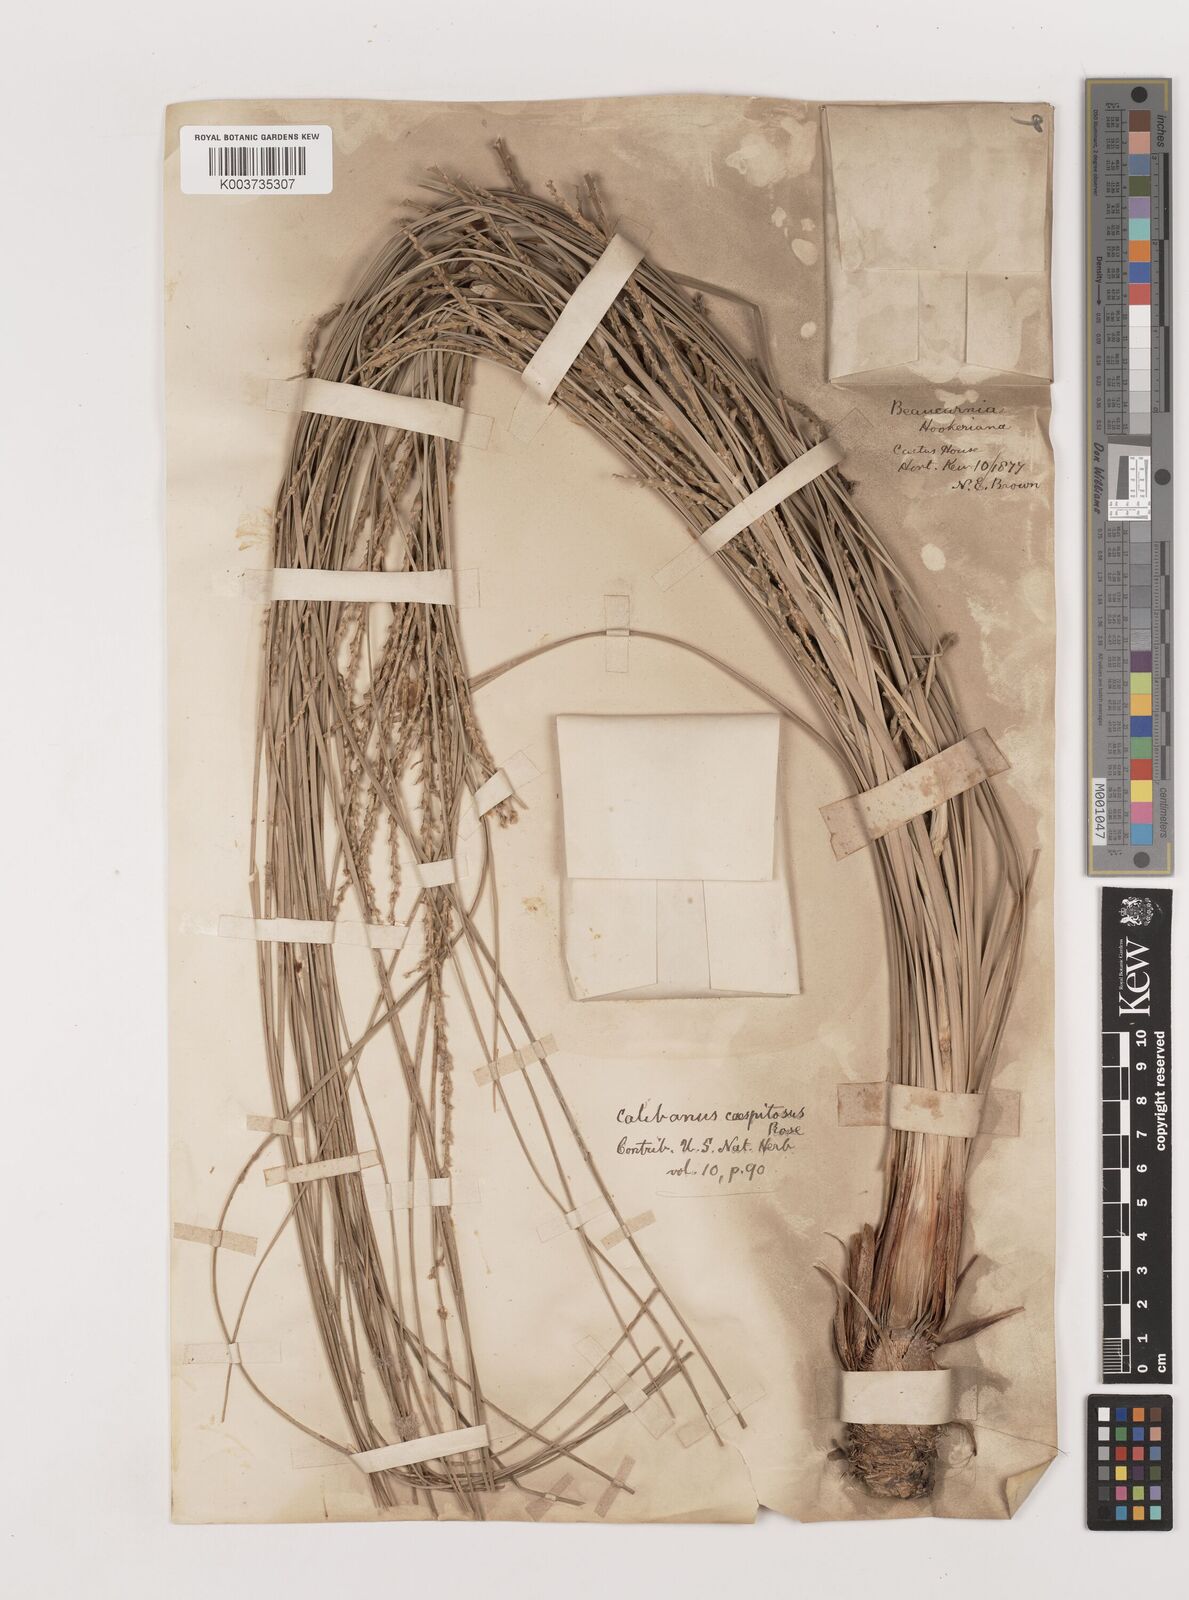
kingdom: Plantae
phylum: Tracheophyta
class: Liliopsida
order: Asparagales
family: Asparagaceae
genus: Beaucarnea
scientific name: Beaucarnea hookeri
